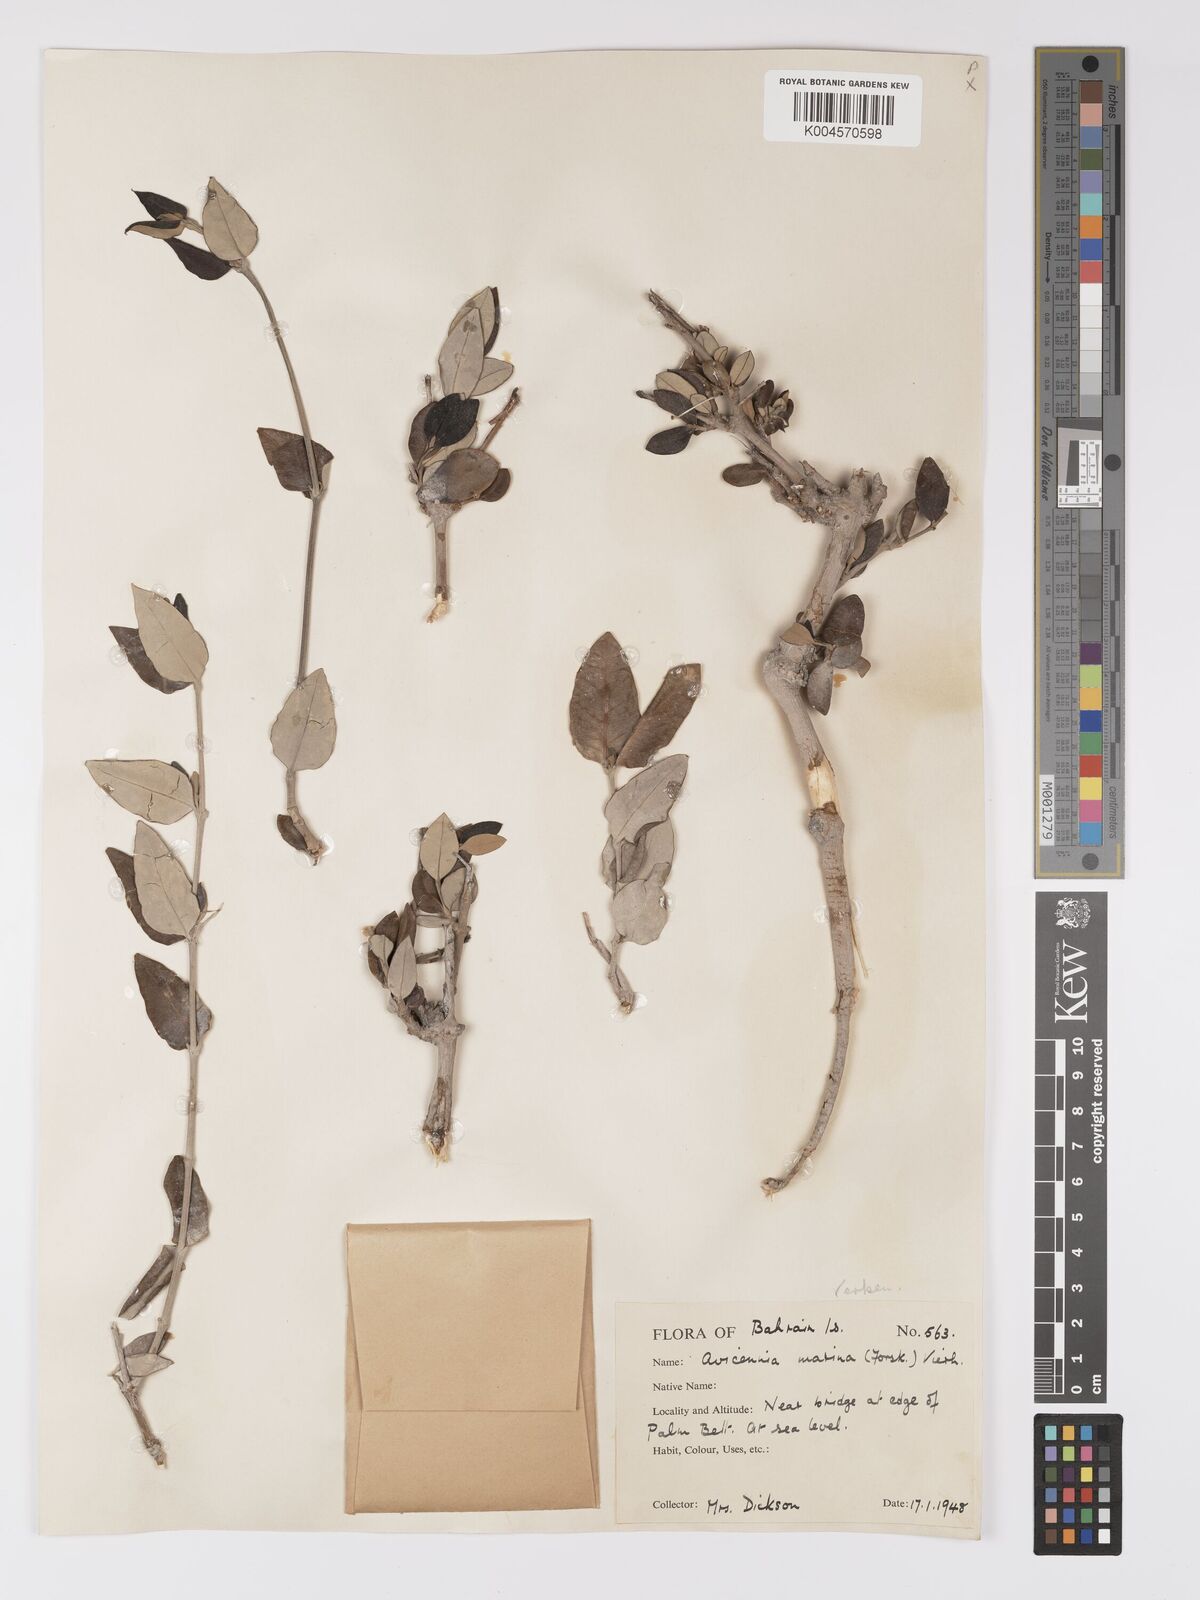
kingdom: Plantae
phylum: Tracheophyta
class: Magnoliopsida
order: Lamiales
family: Acanthaceae
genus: Avicennia
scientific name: Avicennia
